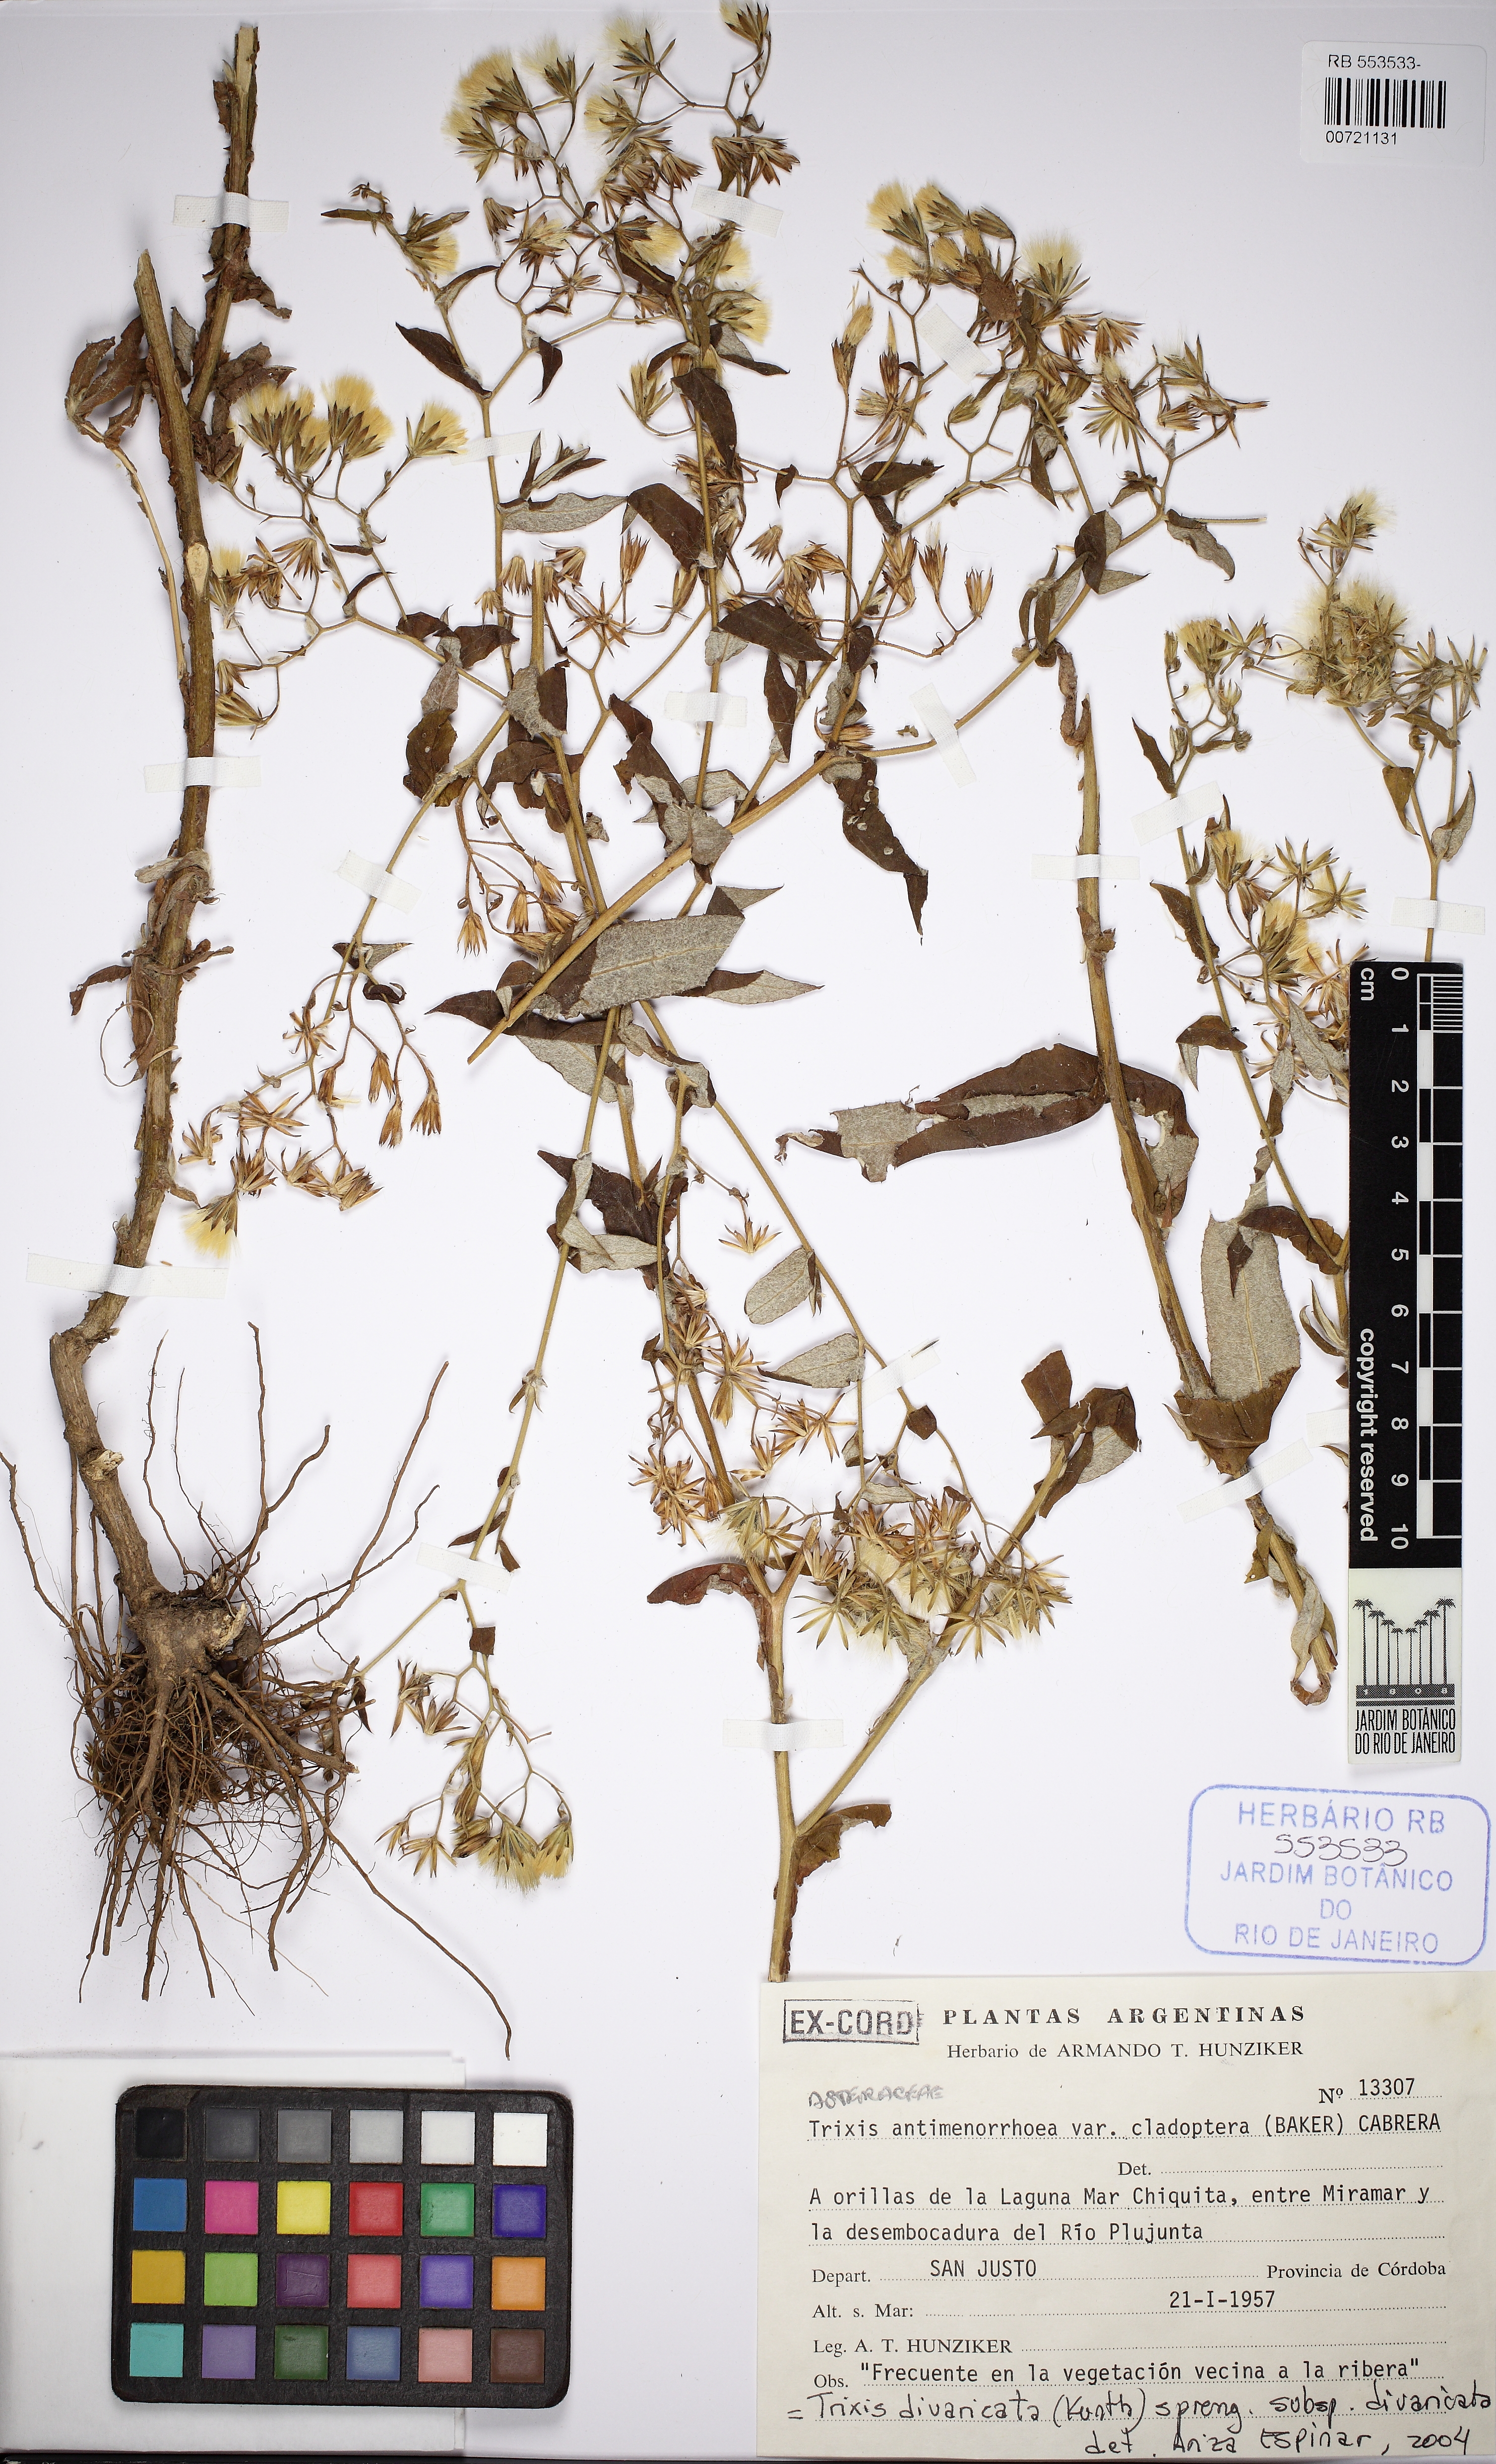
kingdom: Plantae
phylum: Tracheophyta
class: Magnoliopsida
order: Asterales
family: Asteraceae
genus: Trixis
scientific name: Trixis divaricata
